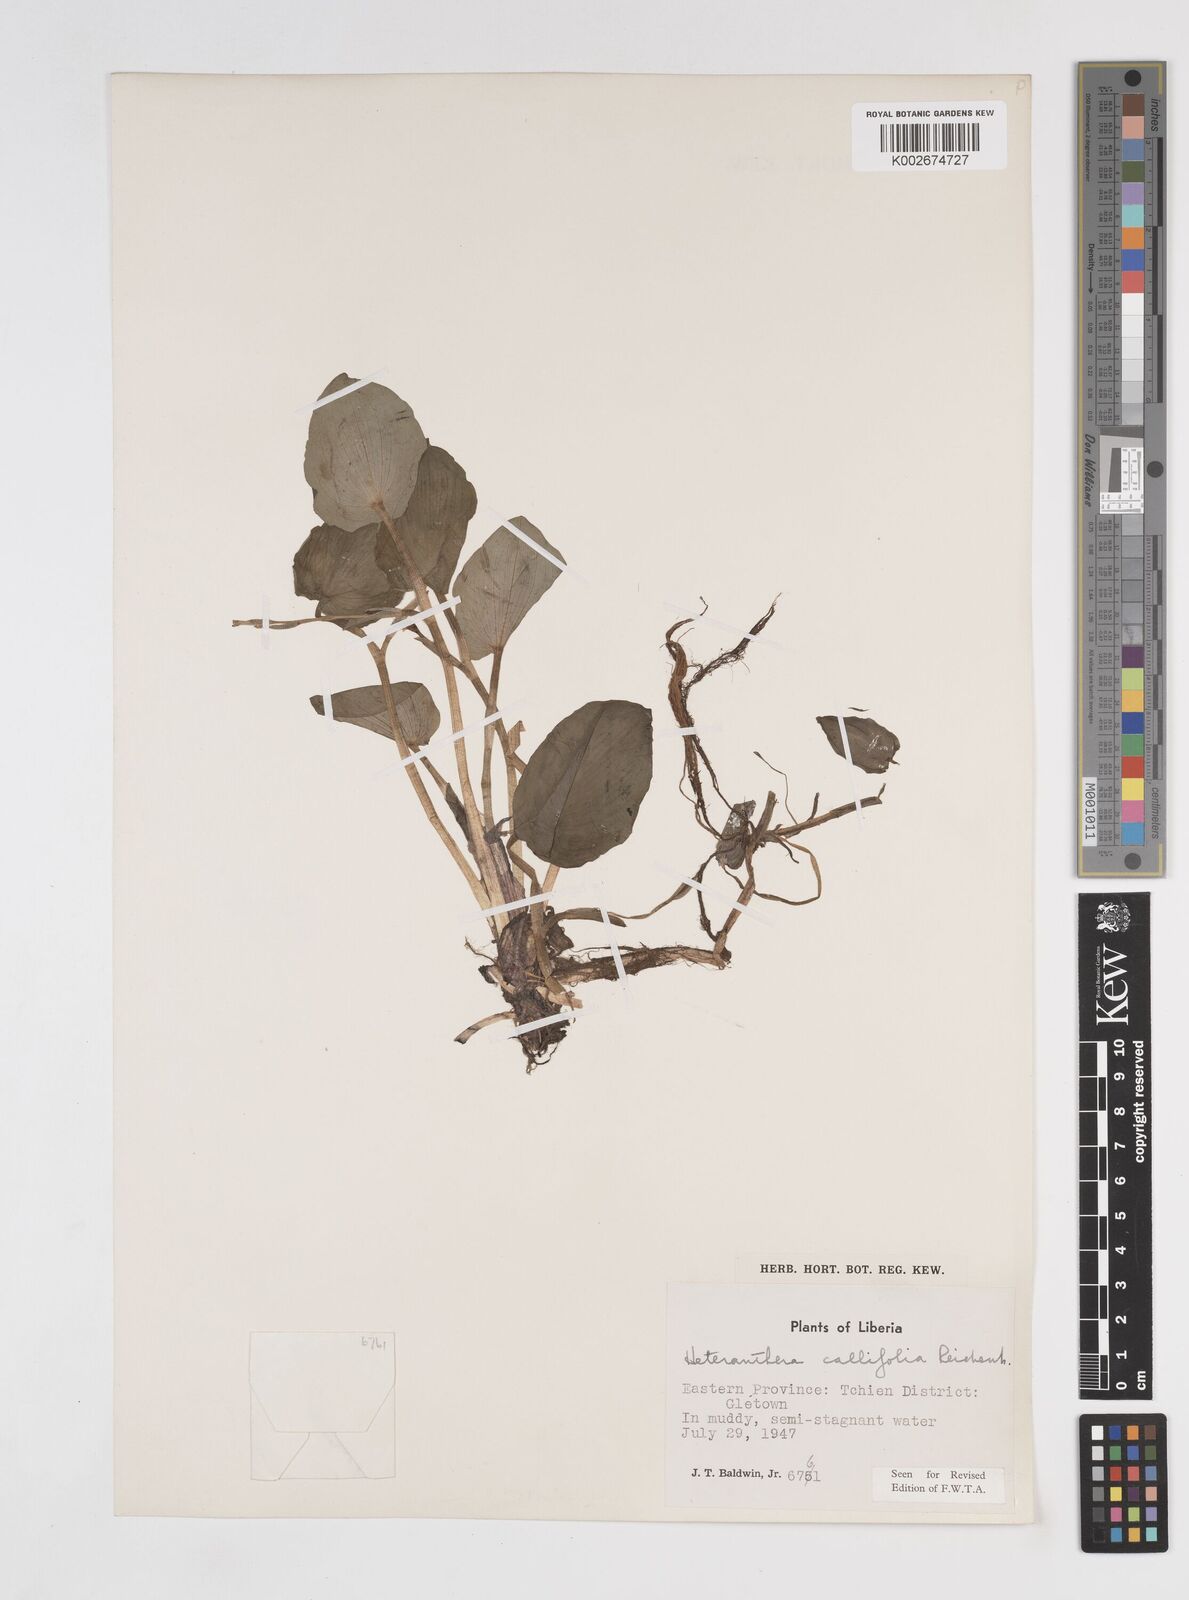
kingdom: Plantae
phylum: Tracheophyta
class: Liliopsida
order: Commelinales
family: Pontederiaceae
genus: Heteranthera
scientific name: Heteranthera callifolia
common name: Mud plantain
